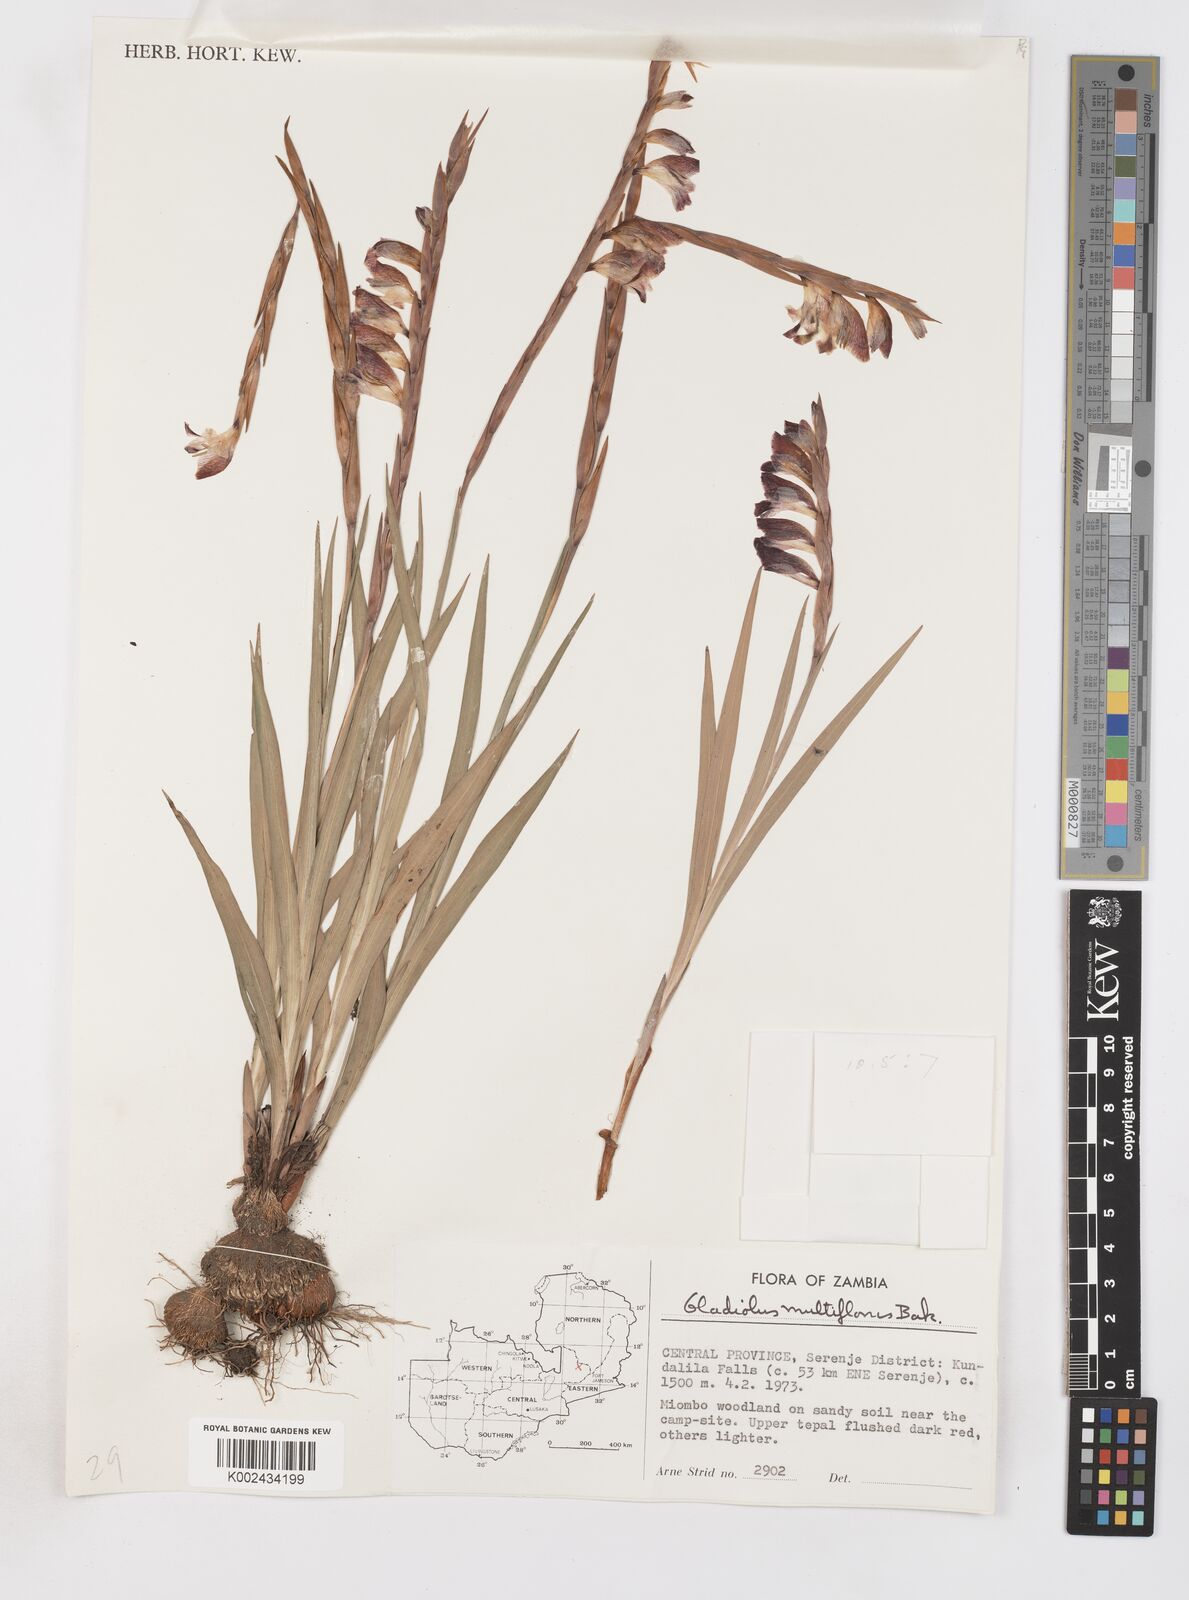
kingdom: Plantae
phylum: Tracheophyta
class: Liliopsida
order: Asparagales
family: Iridaceae
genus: Gladiolus
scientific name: Gladiolus gregarius
